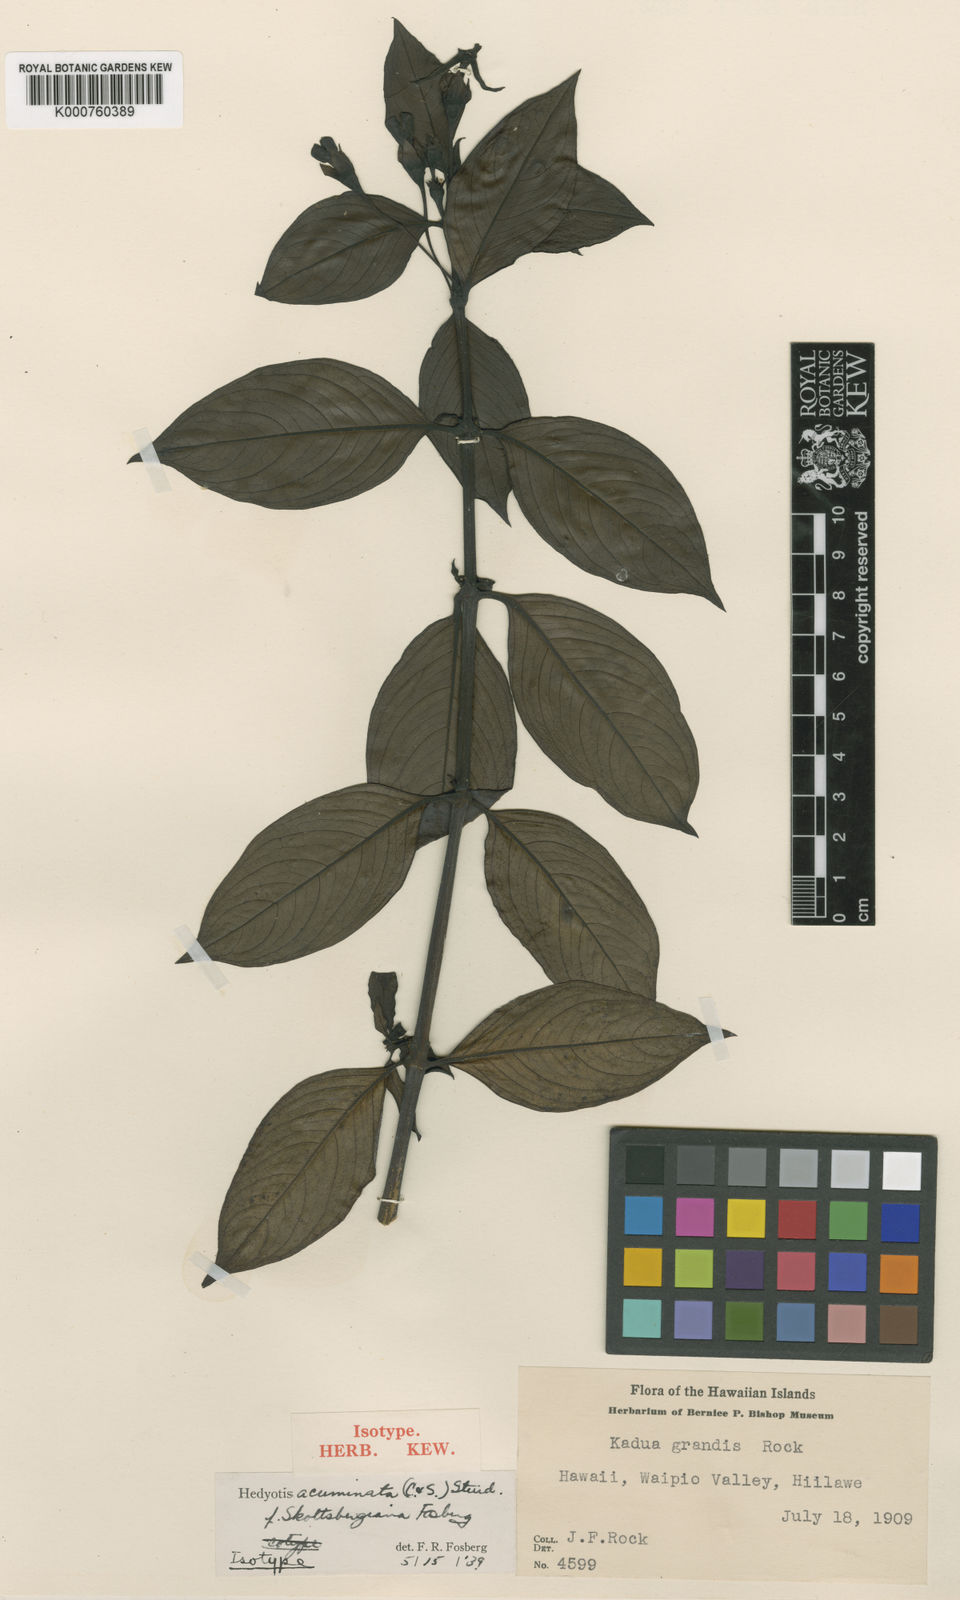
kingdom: Plantae
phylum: Tracheophyta
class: Magnoliopsida
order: Gentianales
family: Rubiaceae
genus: Kadua
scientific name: Kadua acuminata
